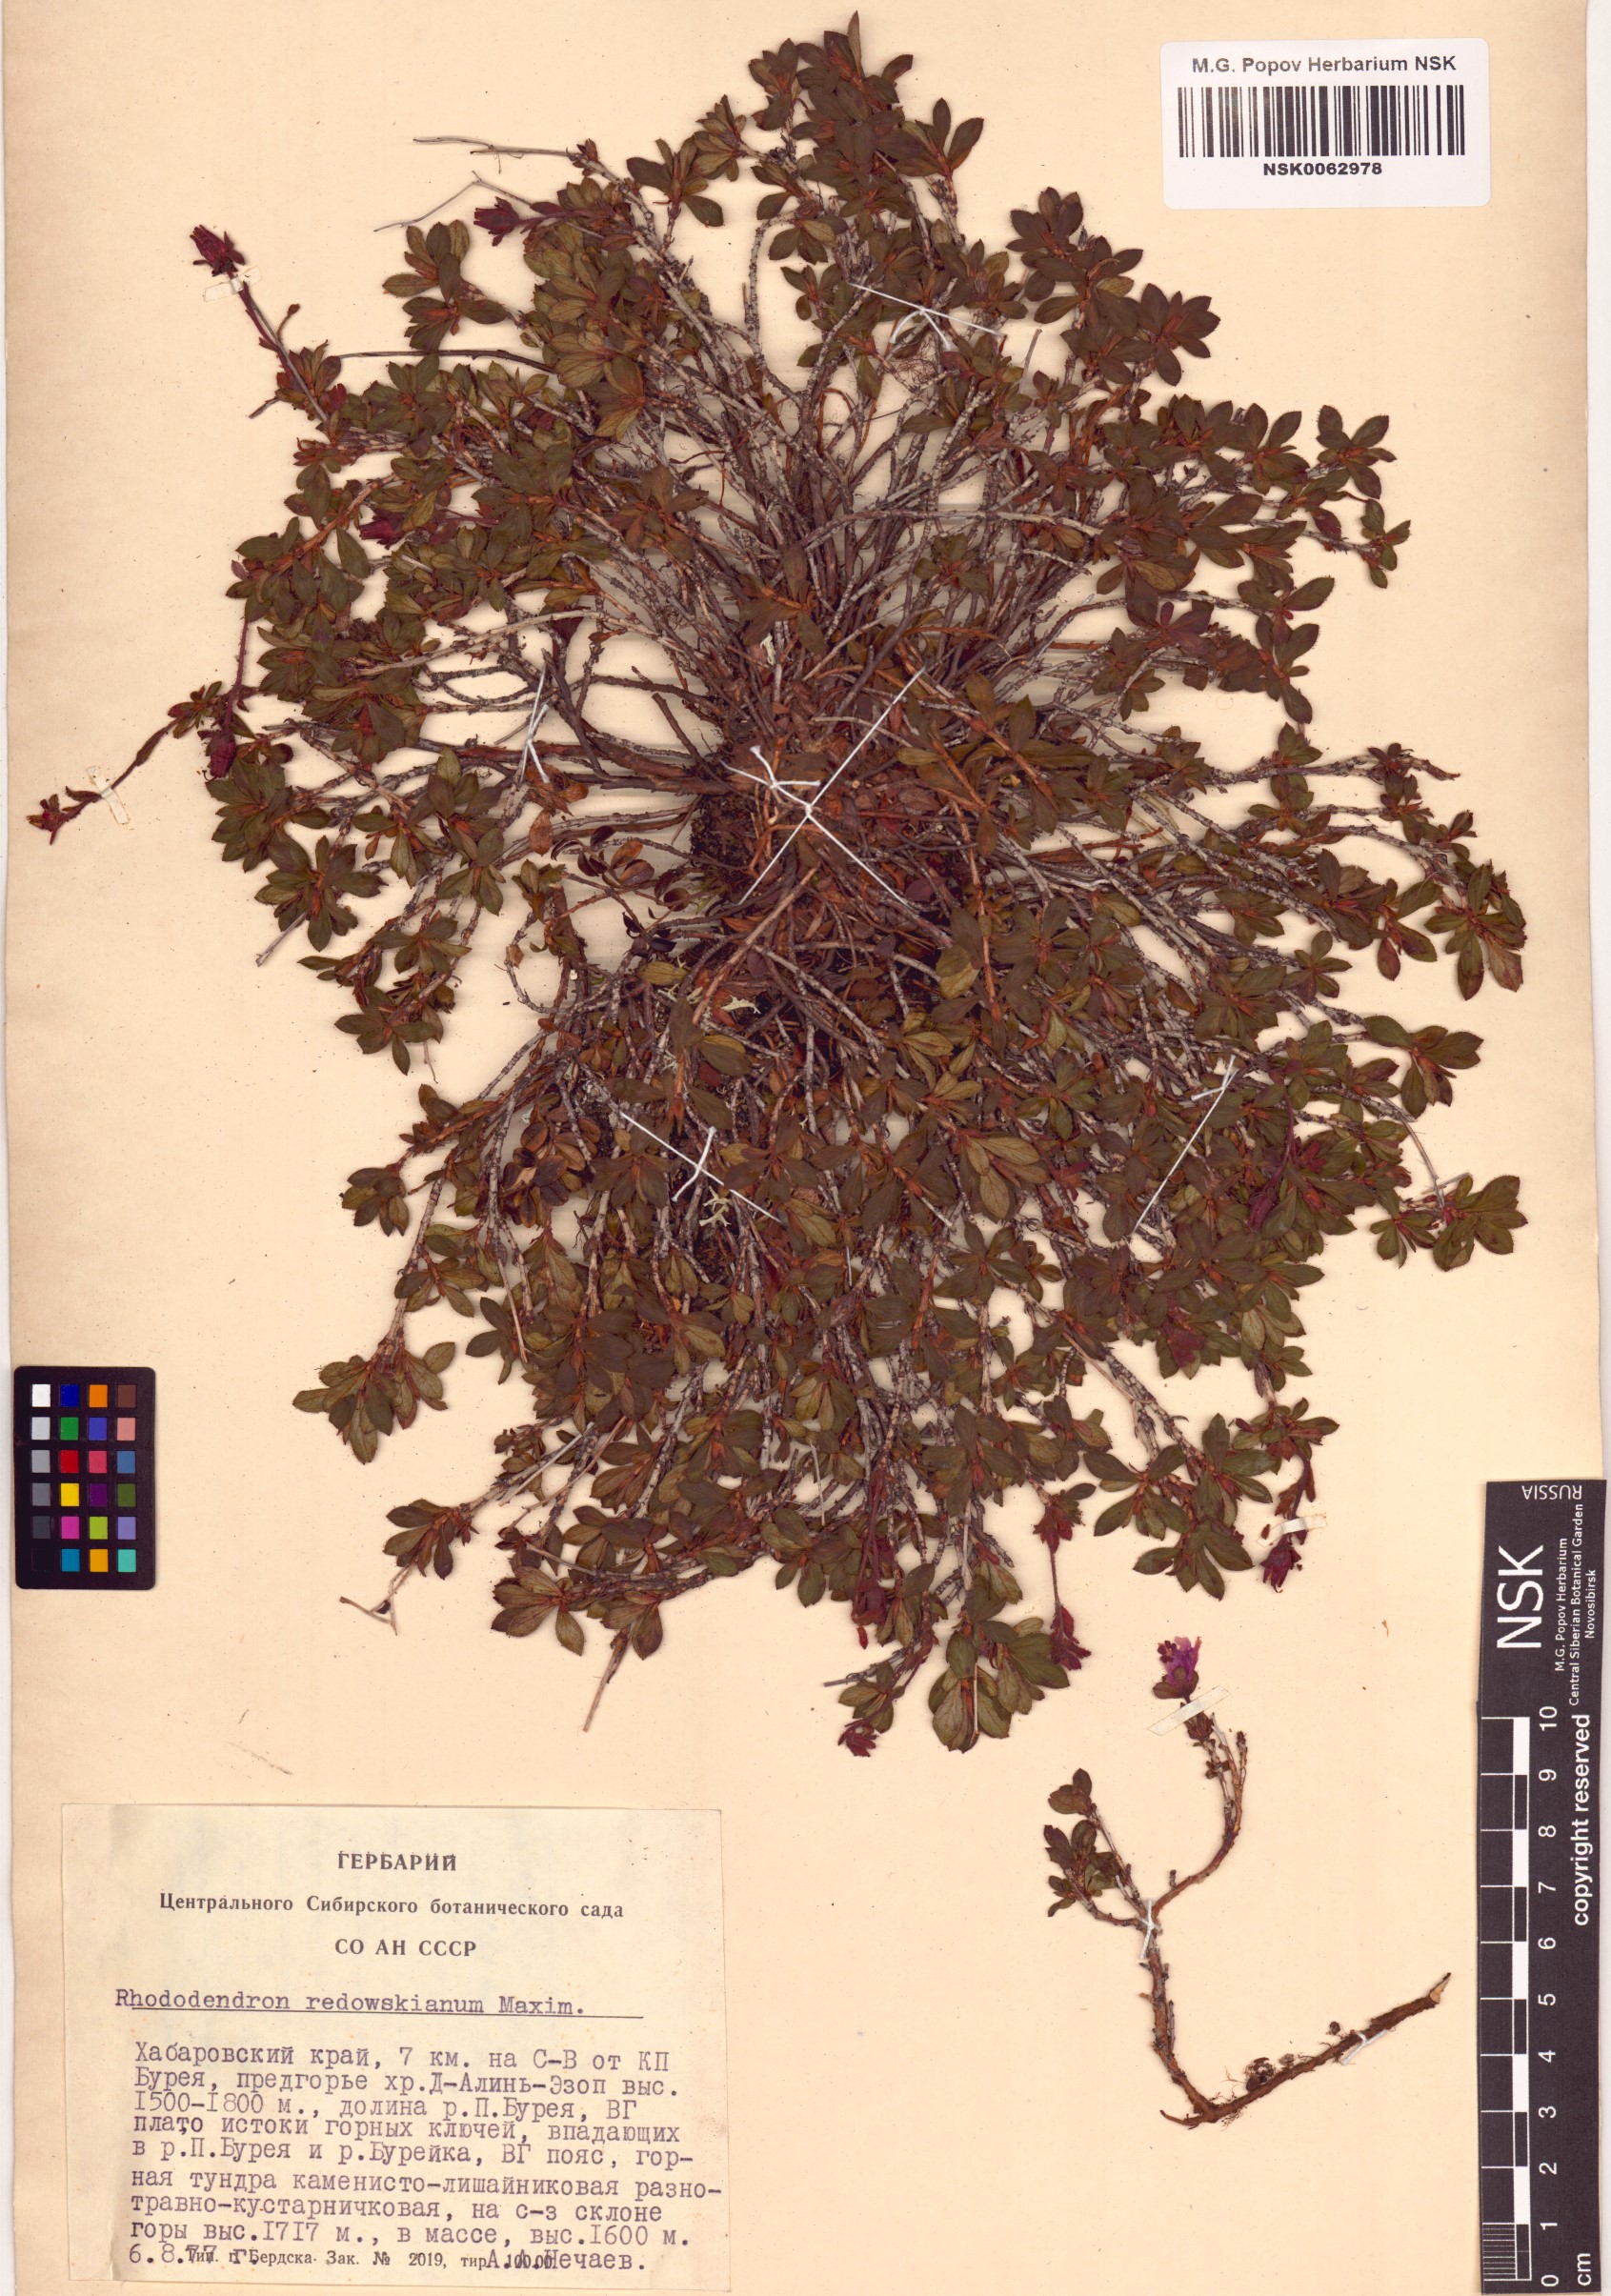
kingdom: Plantae
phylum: Tracheophyta
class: Magnoliopsida
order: Ericales
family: Ericaceae
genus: Rhododendron
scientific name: Rhododendron redowskianum
